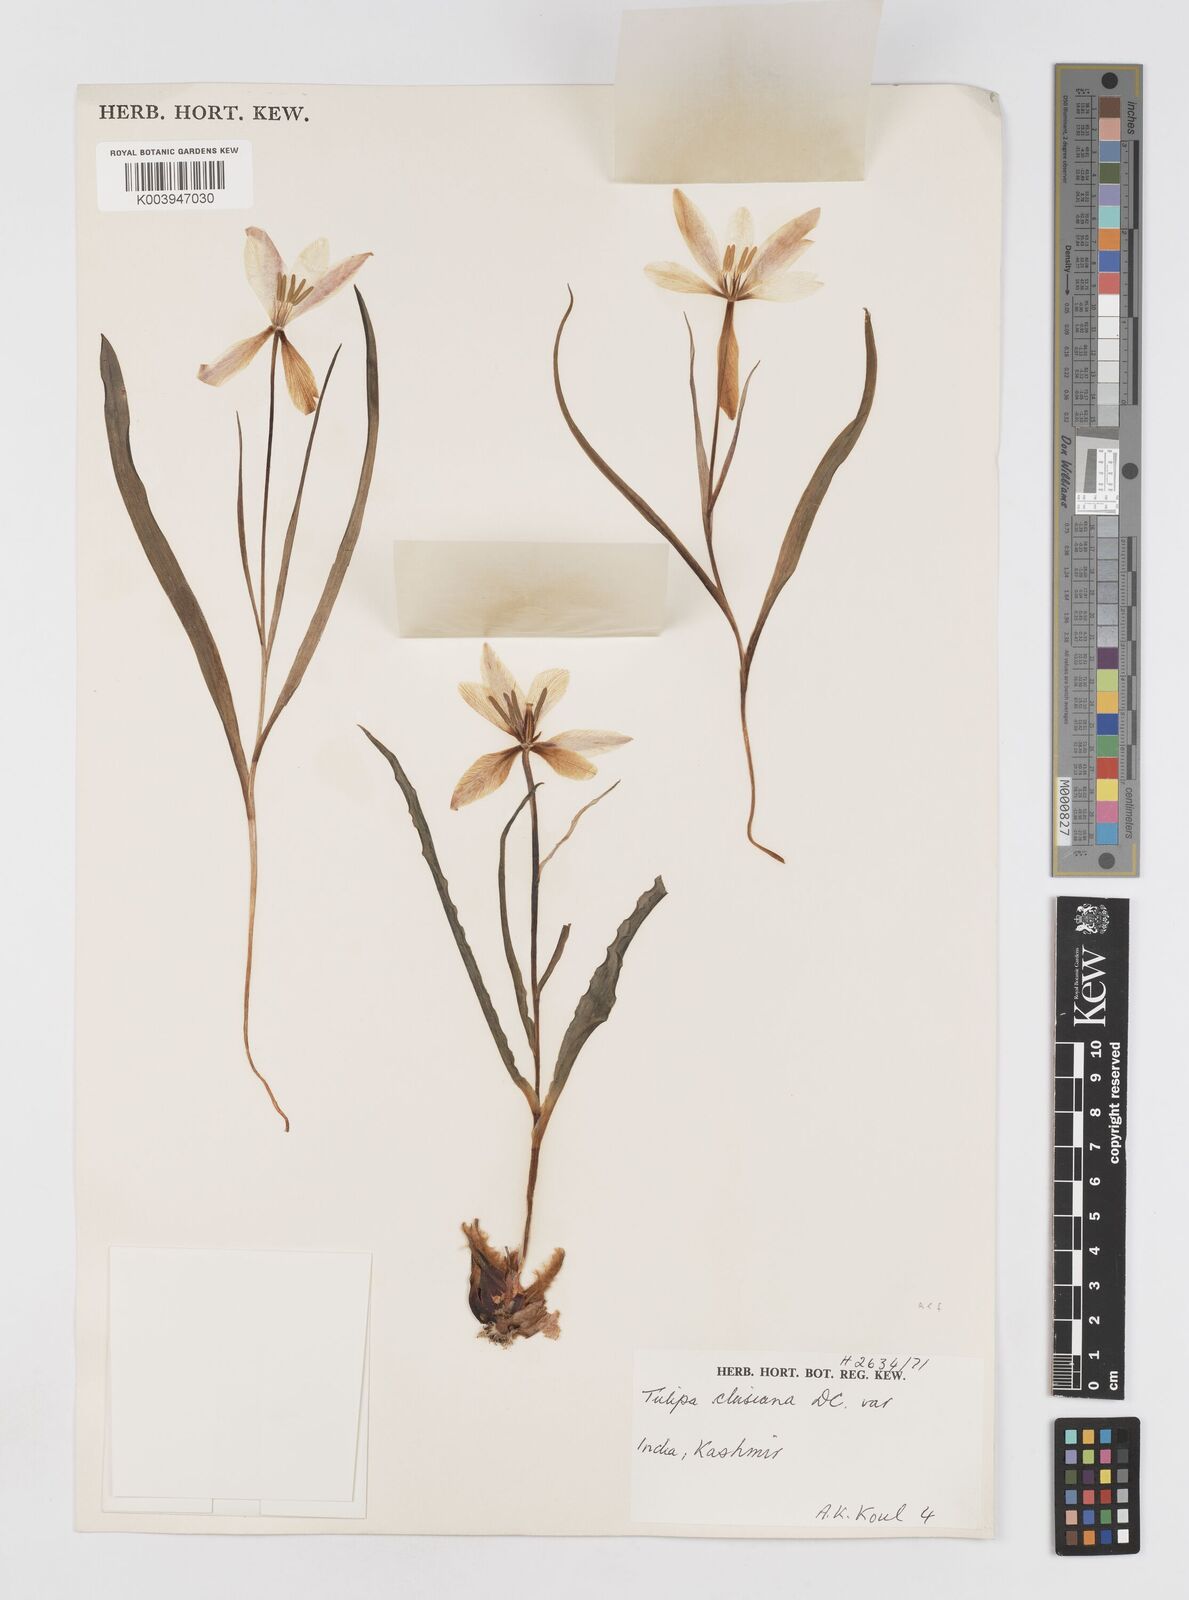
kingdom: Plantae
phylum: Tracheophyta
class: Liliopsida
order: Liliales
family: Liliaceae
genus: Tulipa
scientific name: Tulipa clusiana
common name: Lady tulip
